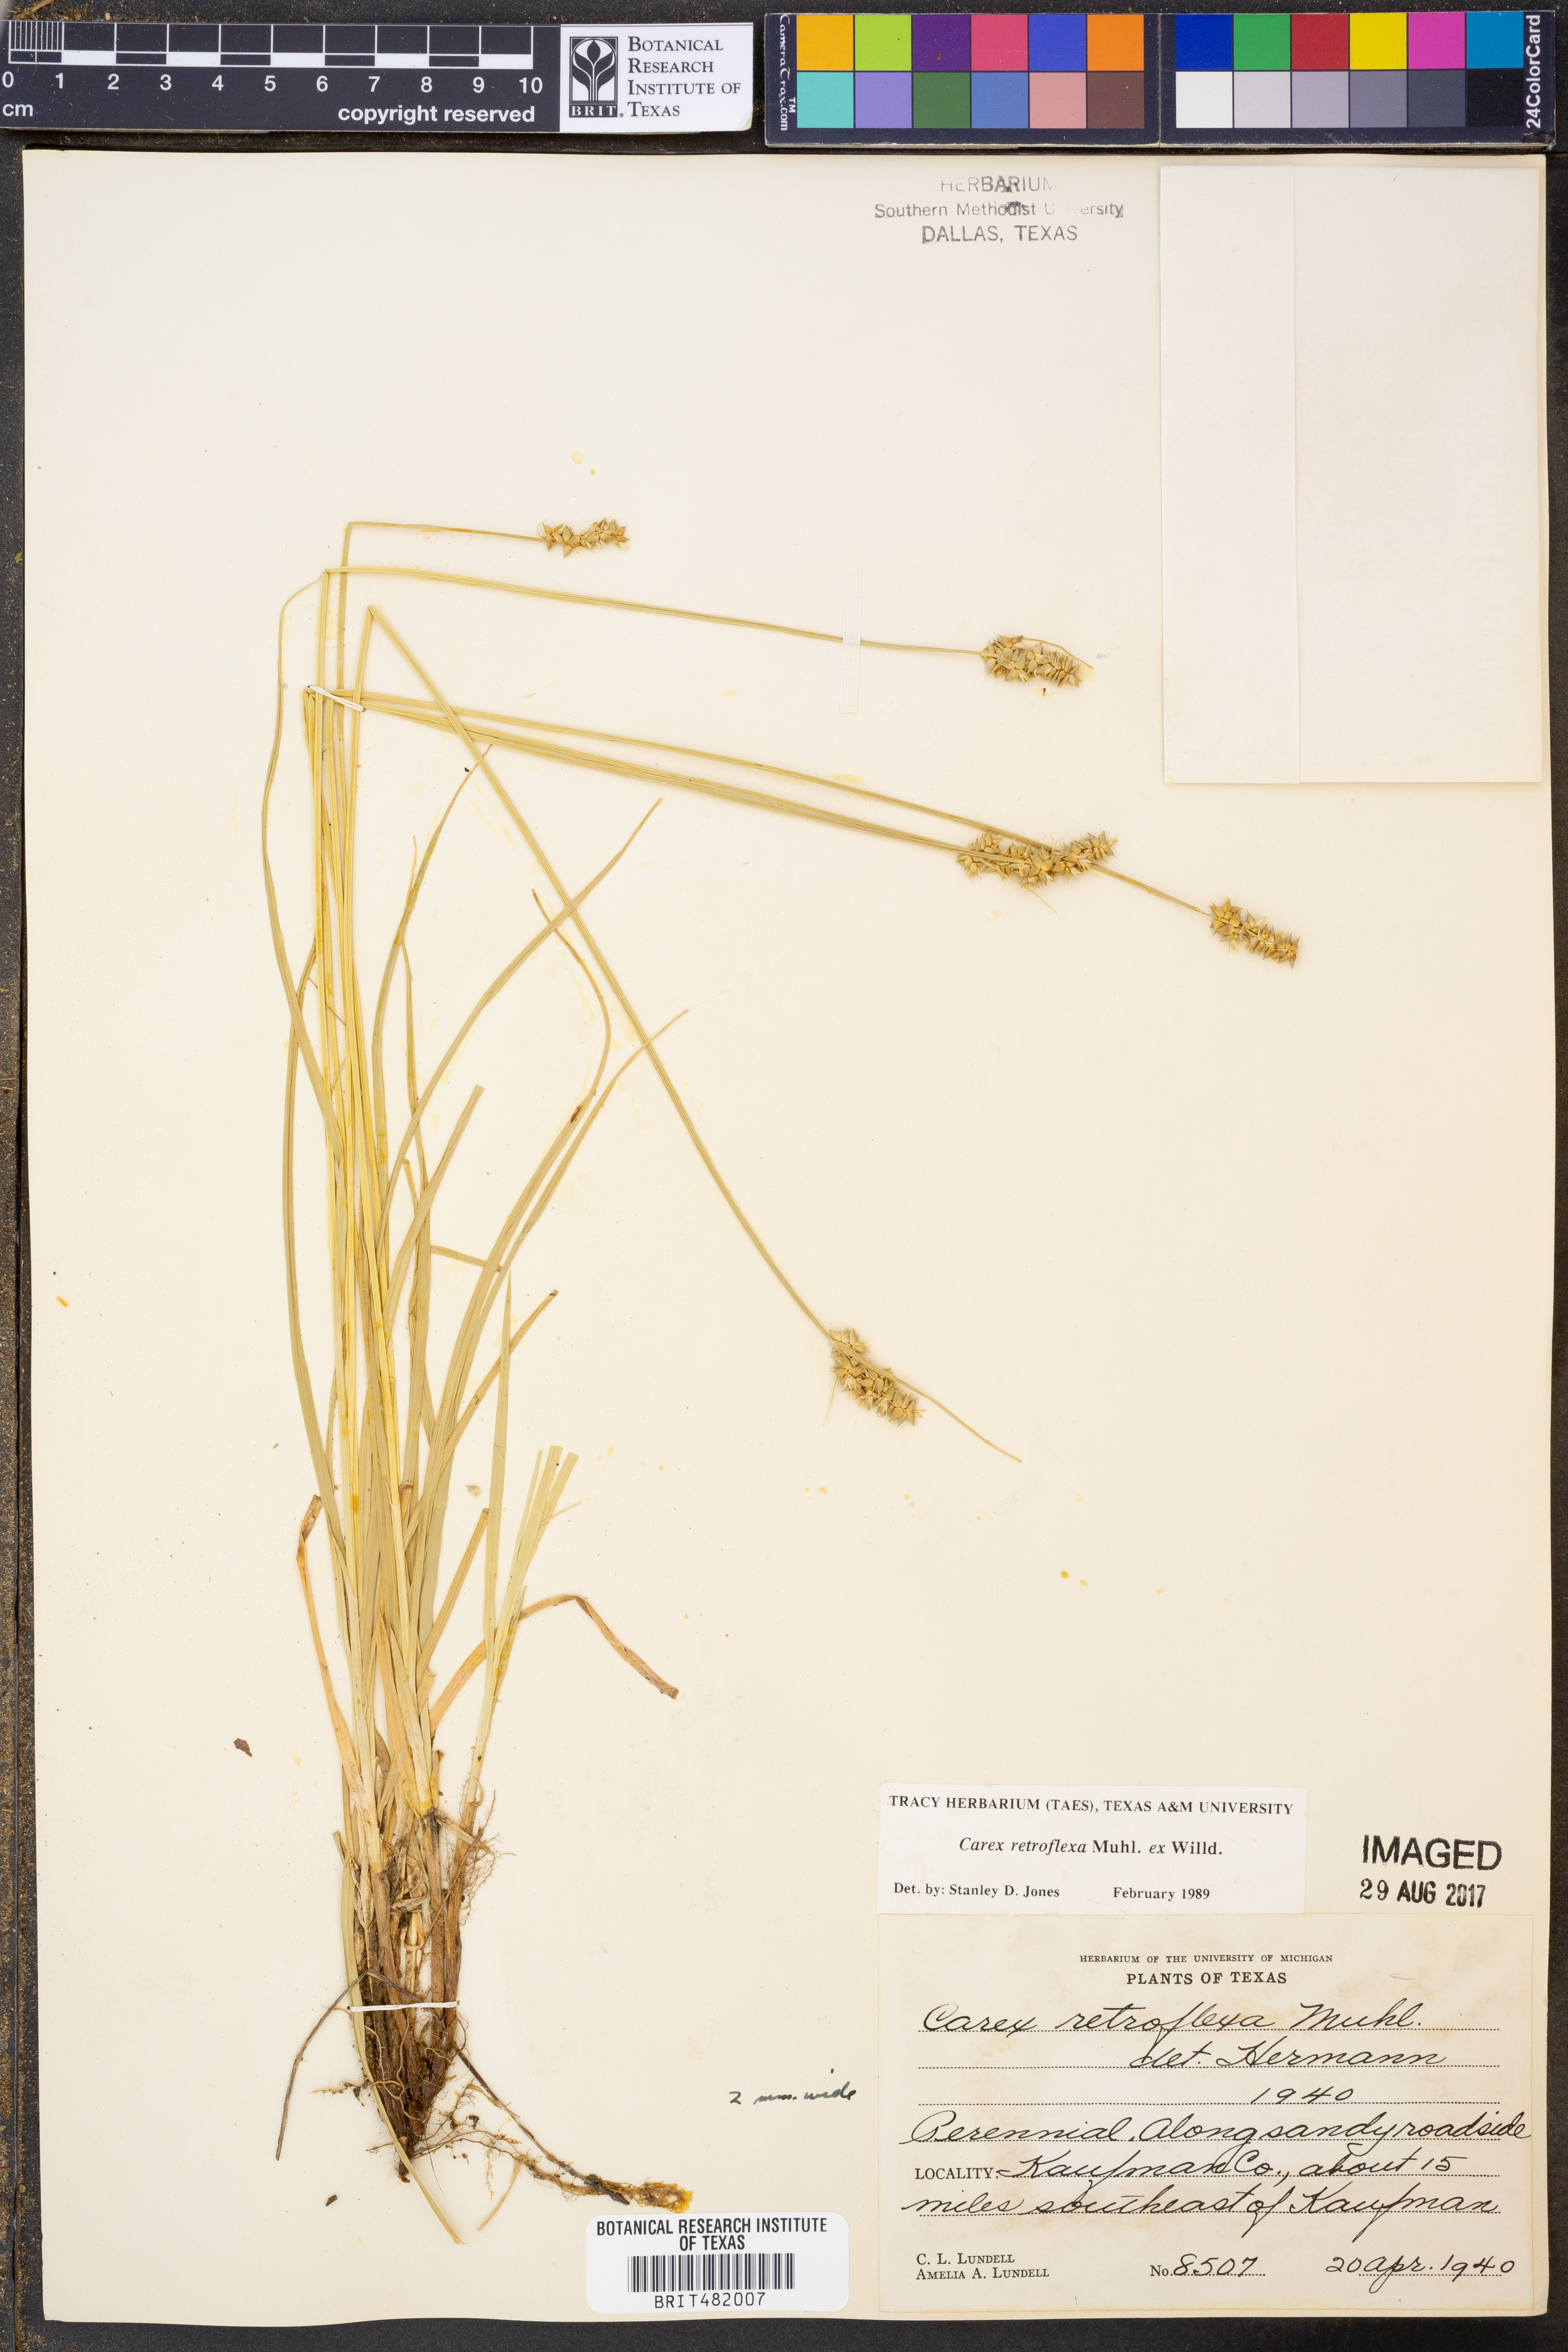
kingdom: Plantae
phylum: Tracheophyta
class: Liliopsida
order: Poales
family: Cyperaceae
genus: Carex
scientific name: Carex retroflexa
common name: Reflexed sedge
